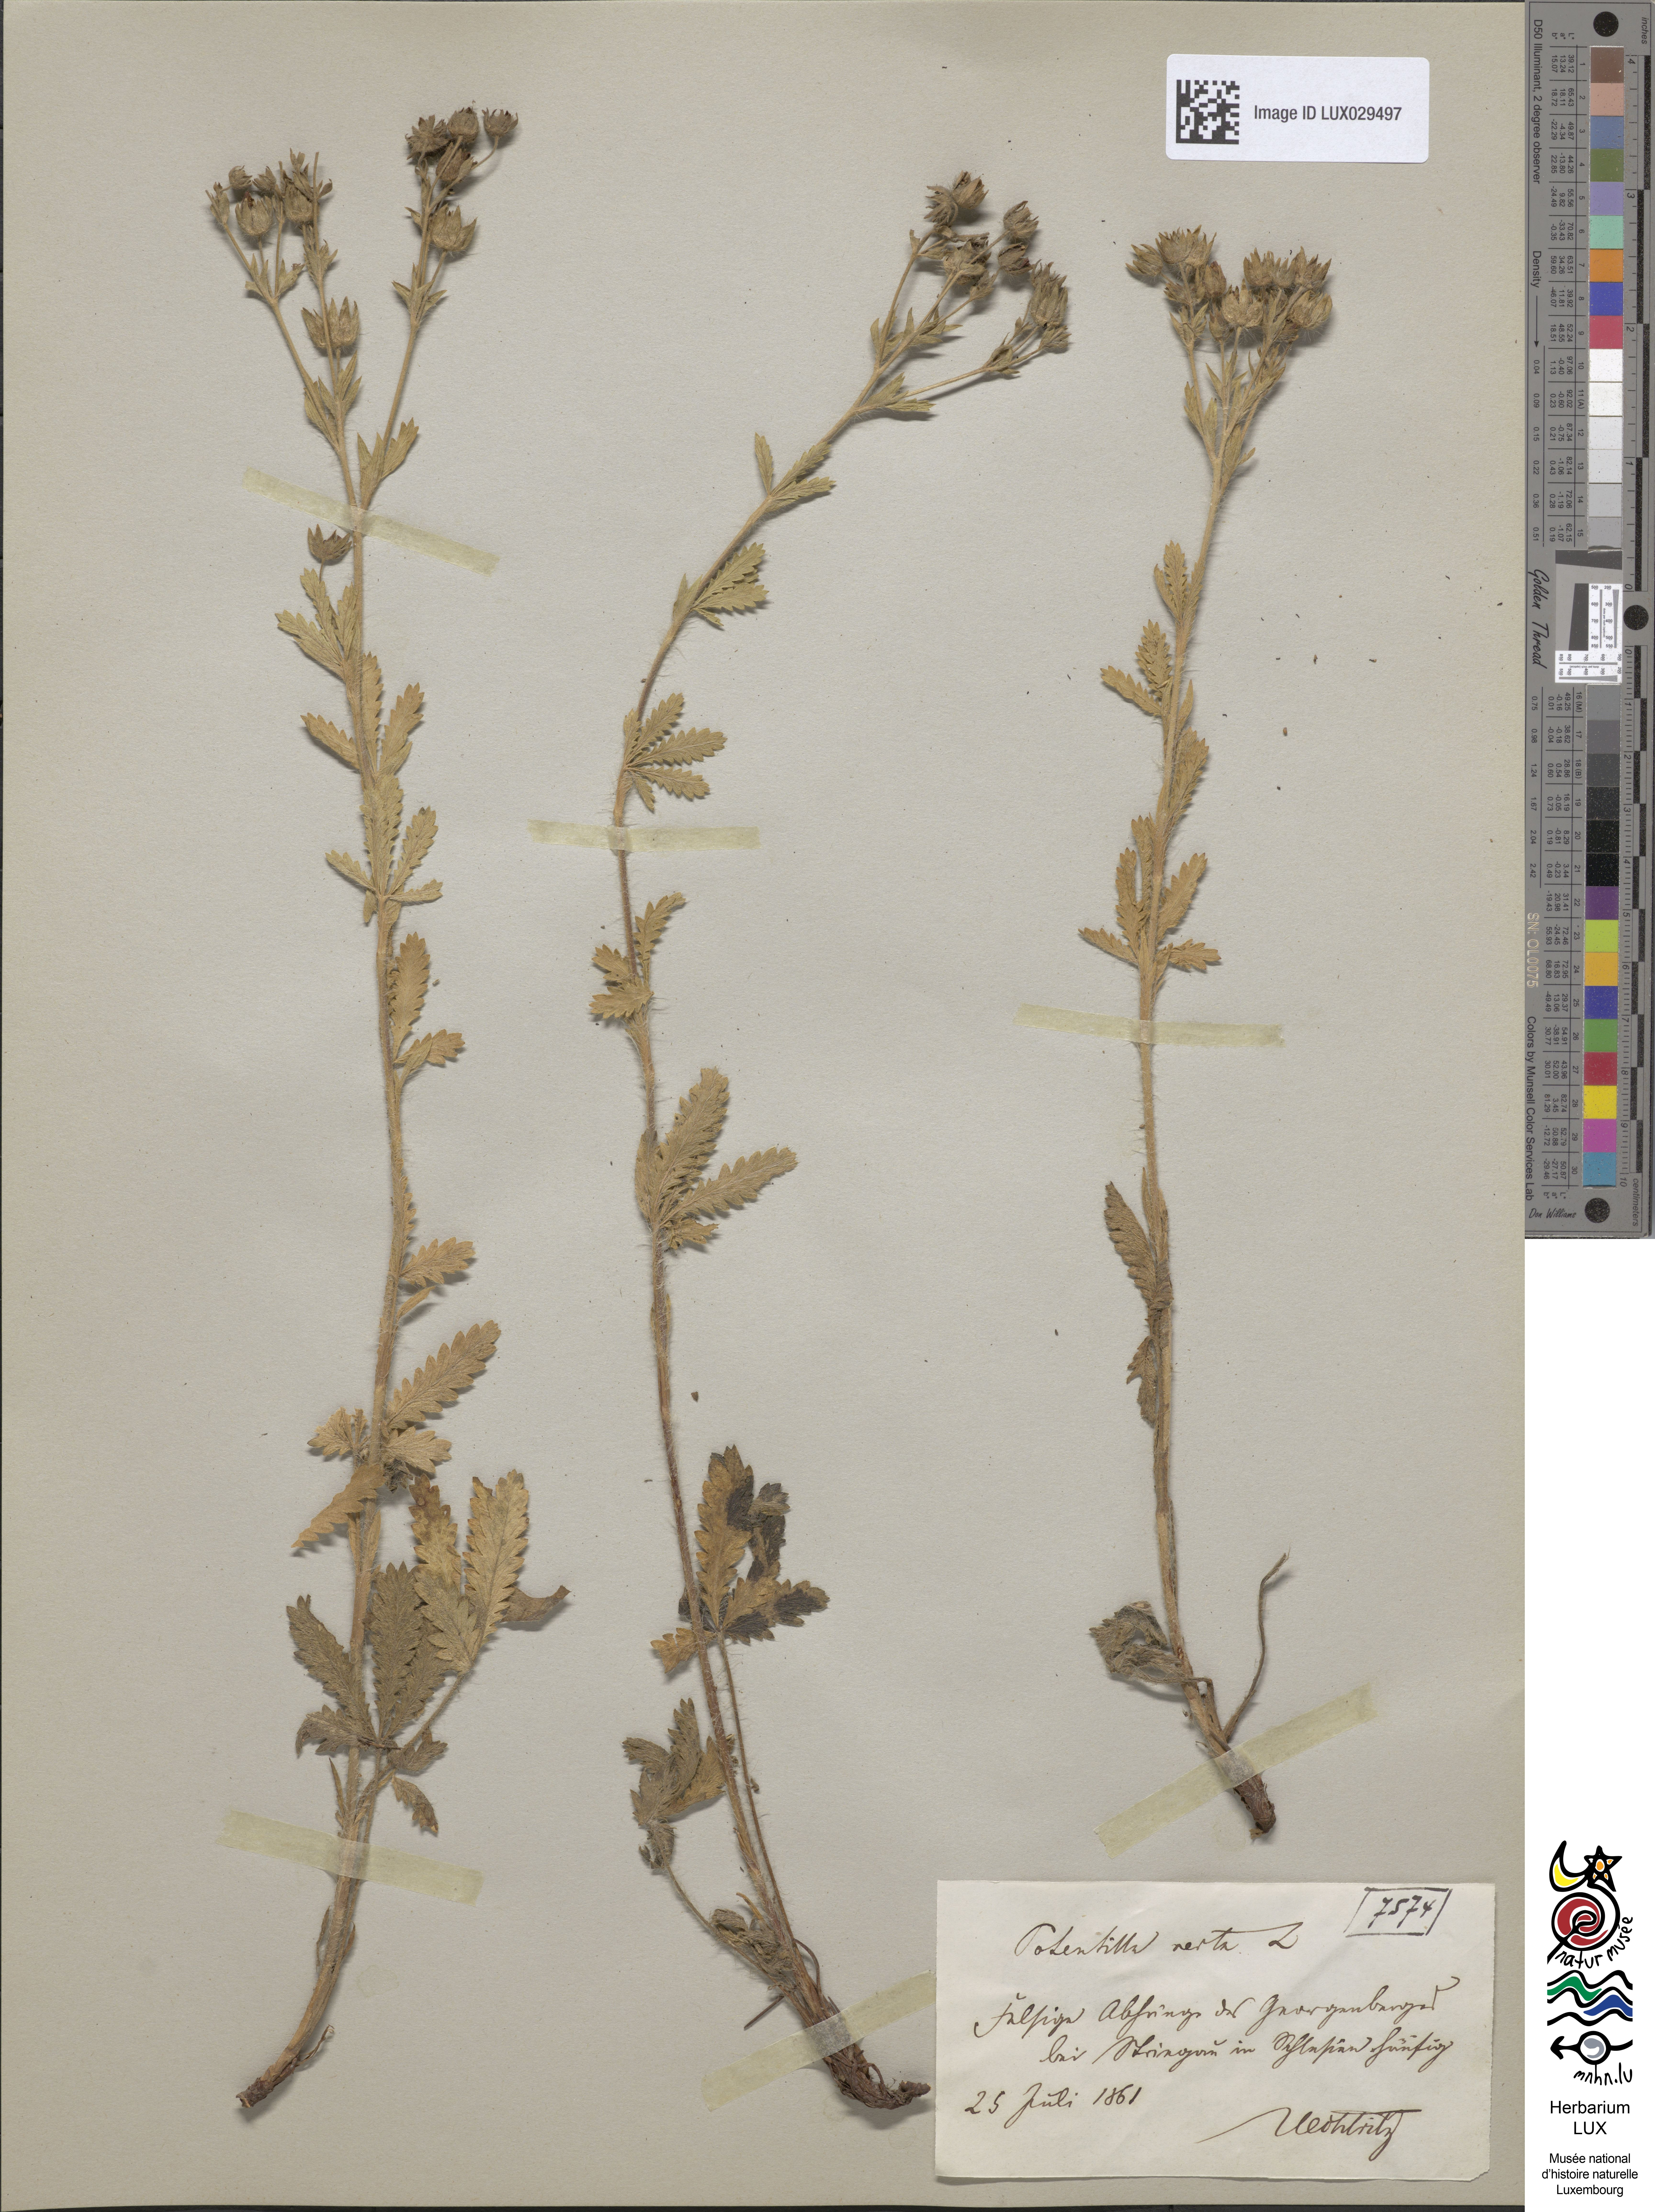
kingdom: Plantae
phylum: Tracheophyta
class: Magnoliopsida
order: Rosales
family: Rosaceae
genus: Potentilla
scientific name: Potentilla recta
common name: Sulphur cinquefoil
